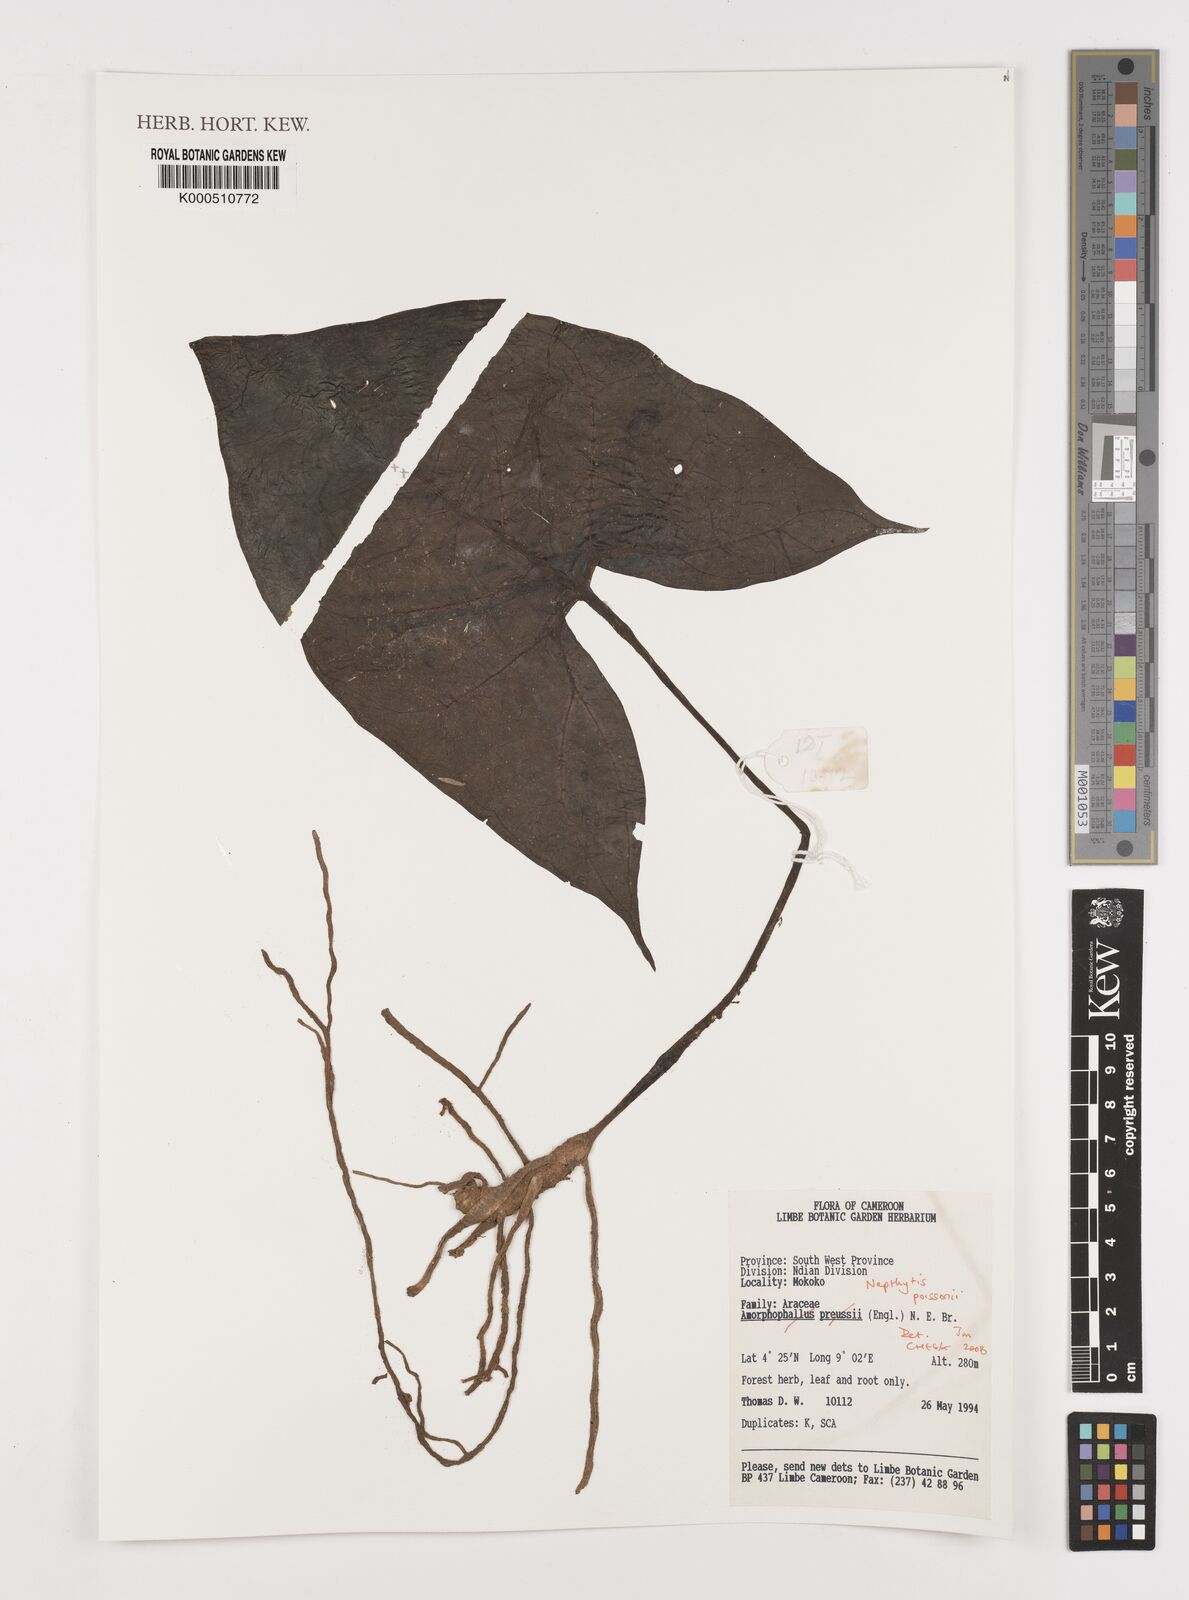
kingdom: Plantae
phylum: Tracheophyta
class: Liliopsida
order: Alismatales
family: Araceae
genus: Nephthytis
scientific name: Nephthytis poissonii
